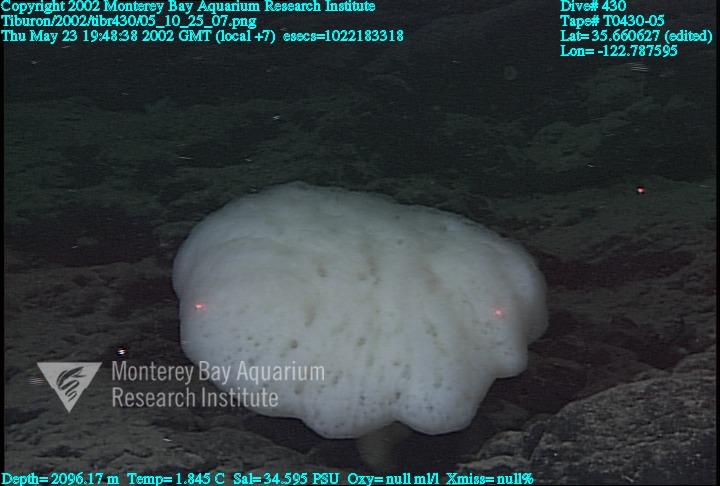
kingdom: Animalia
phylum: Porifera
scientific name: Porifera
